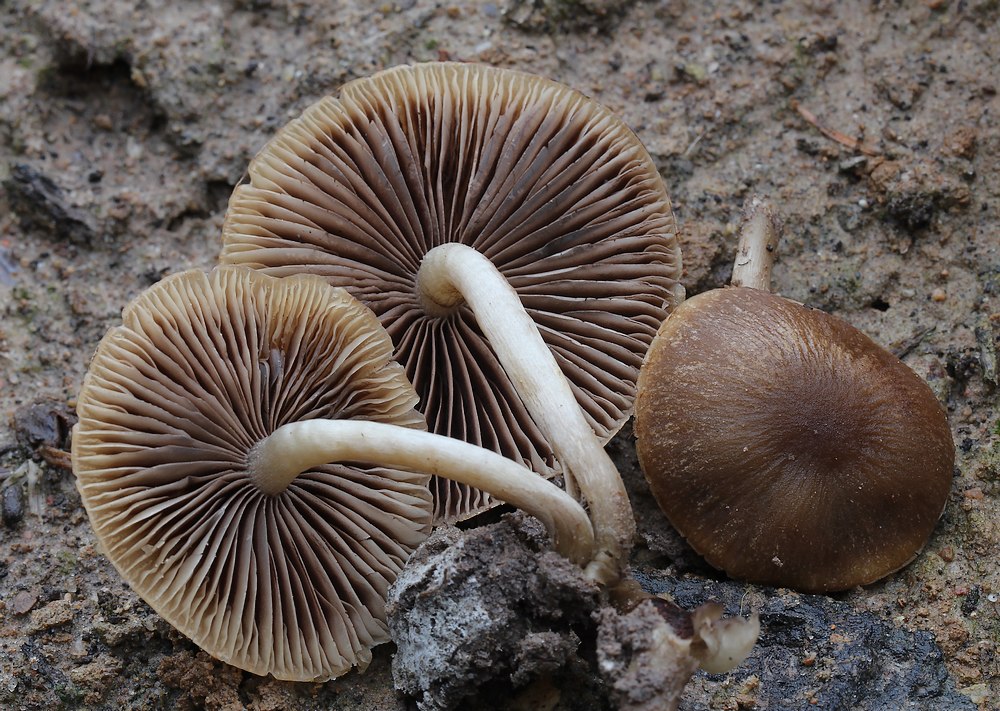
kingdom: Fungi
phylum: Basidiomycota
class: Agaricomycetes
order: Agaricales
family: Psathyrellaceae
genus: Psathyrella
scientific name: Psathyrella
